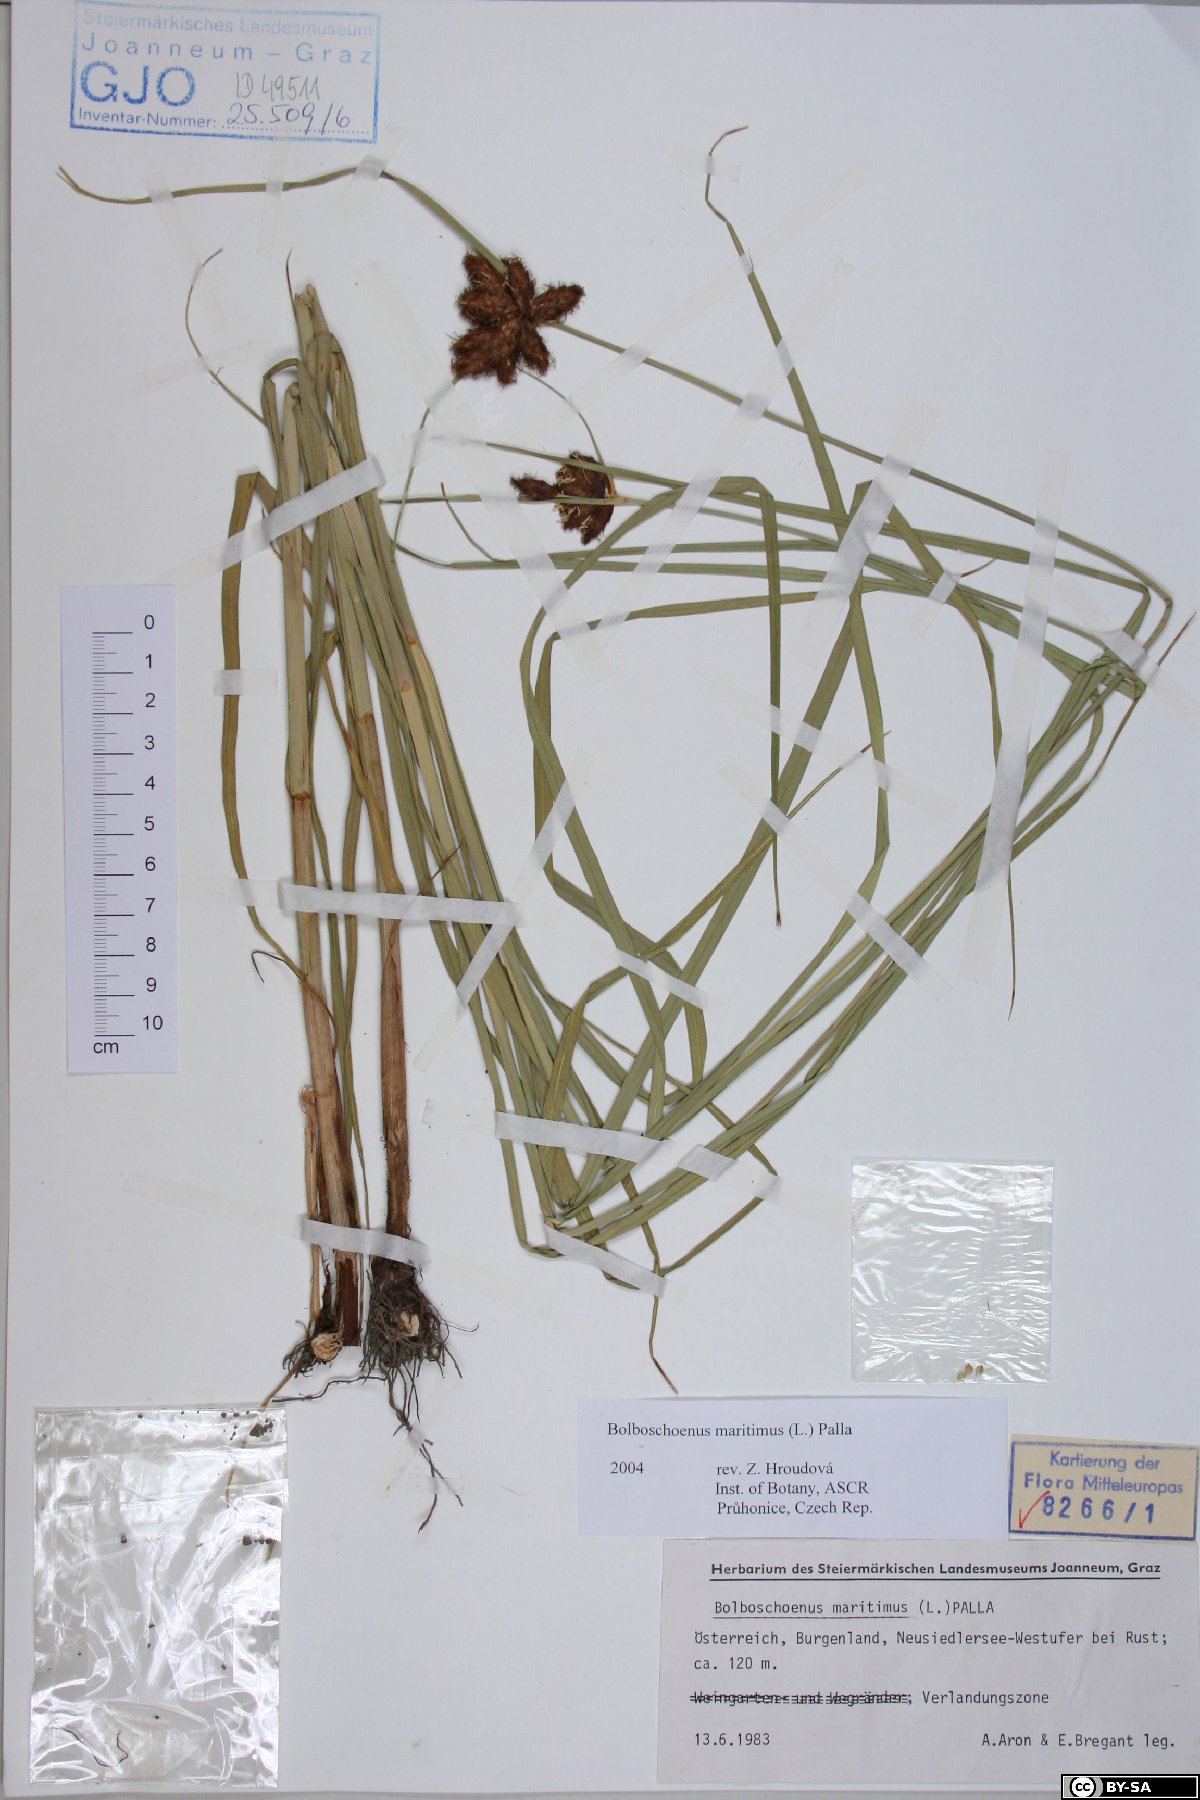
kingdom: Plantae
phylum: Tracheophyta
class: Liliopsida
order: Poales
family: Cyperaceae
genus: Bolboschoenus
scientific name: Bolboschoenus maritimus
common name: Sea club-rush
